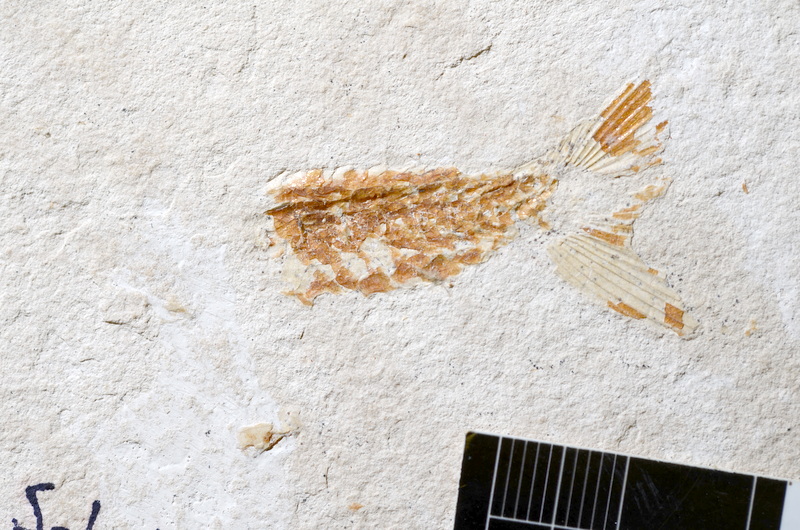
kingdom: Animalia
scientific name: Animalia
